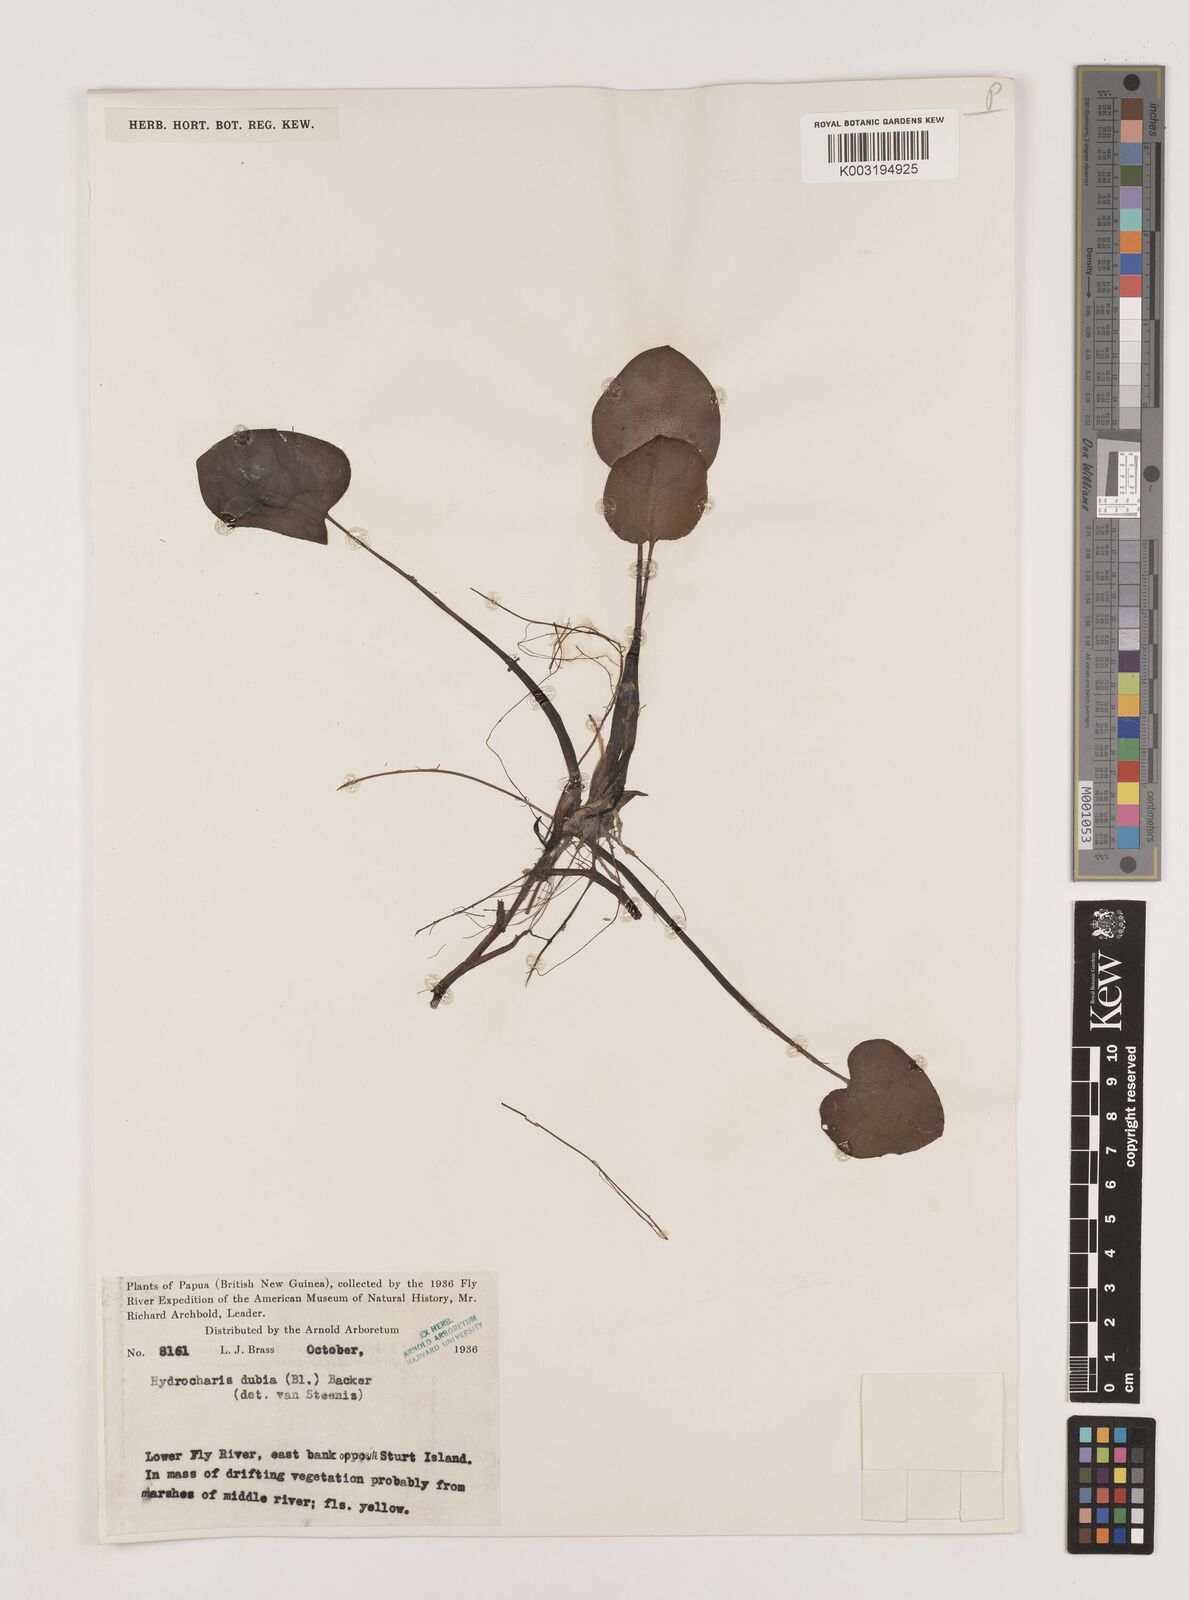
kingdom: Plantae
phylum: Tracheophyta
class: Liliopsida
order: Alismatales
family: Hydrocharitaceae
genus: Hydrocharis
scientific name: Hydrocharis dubia
